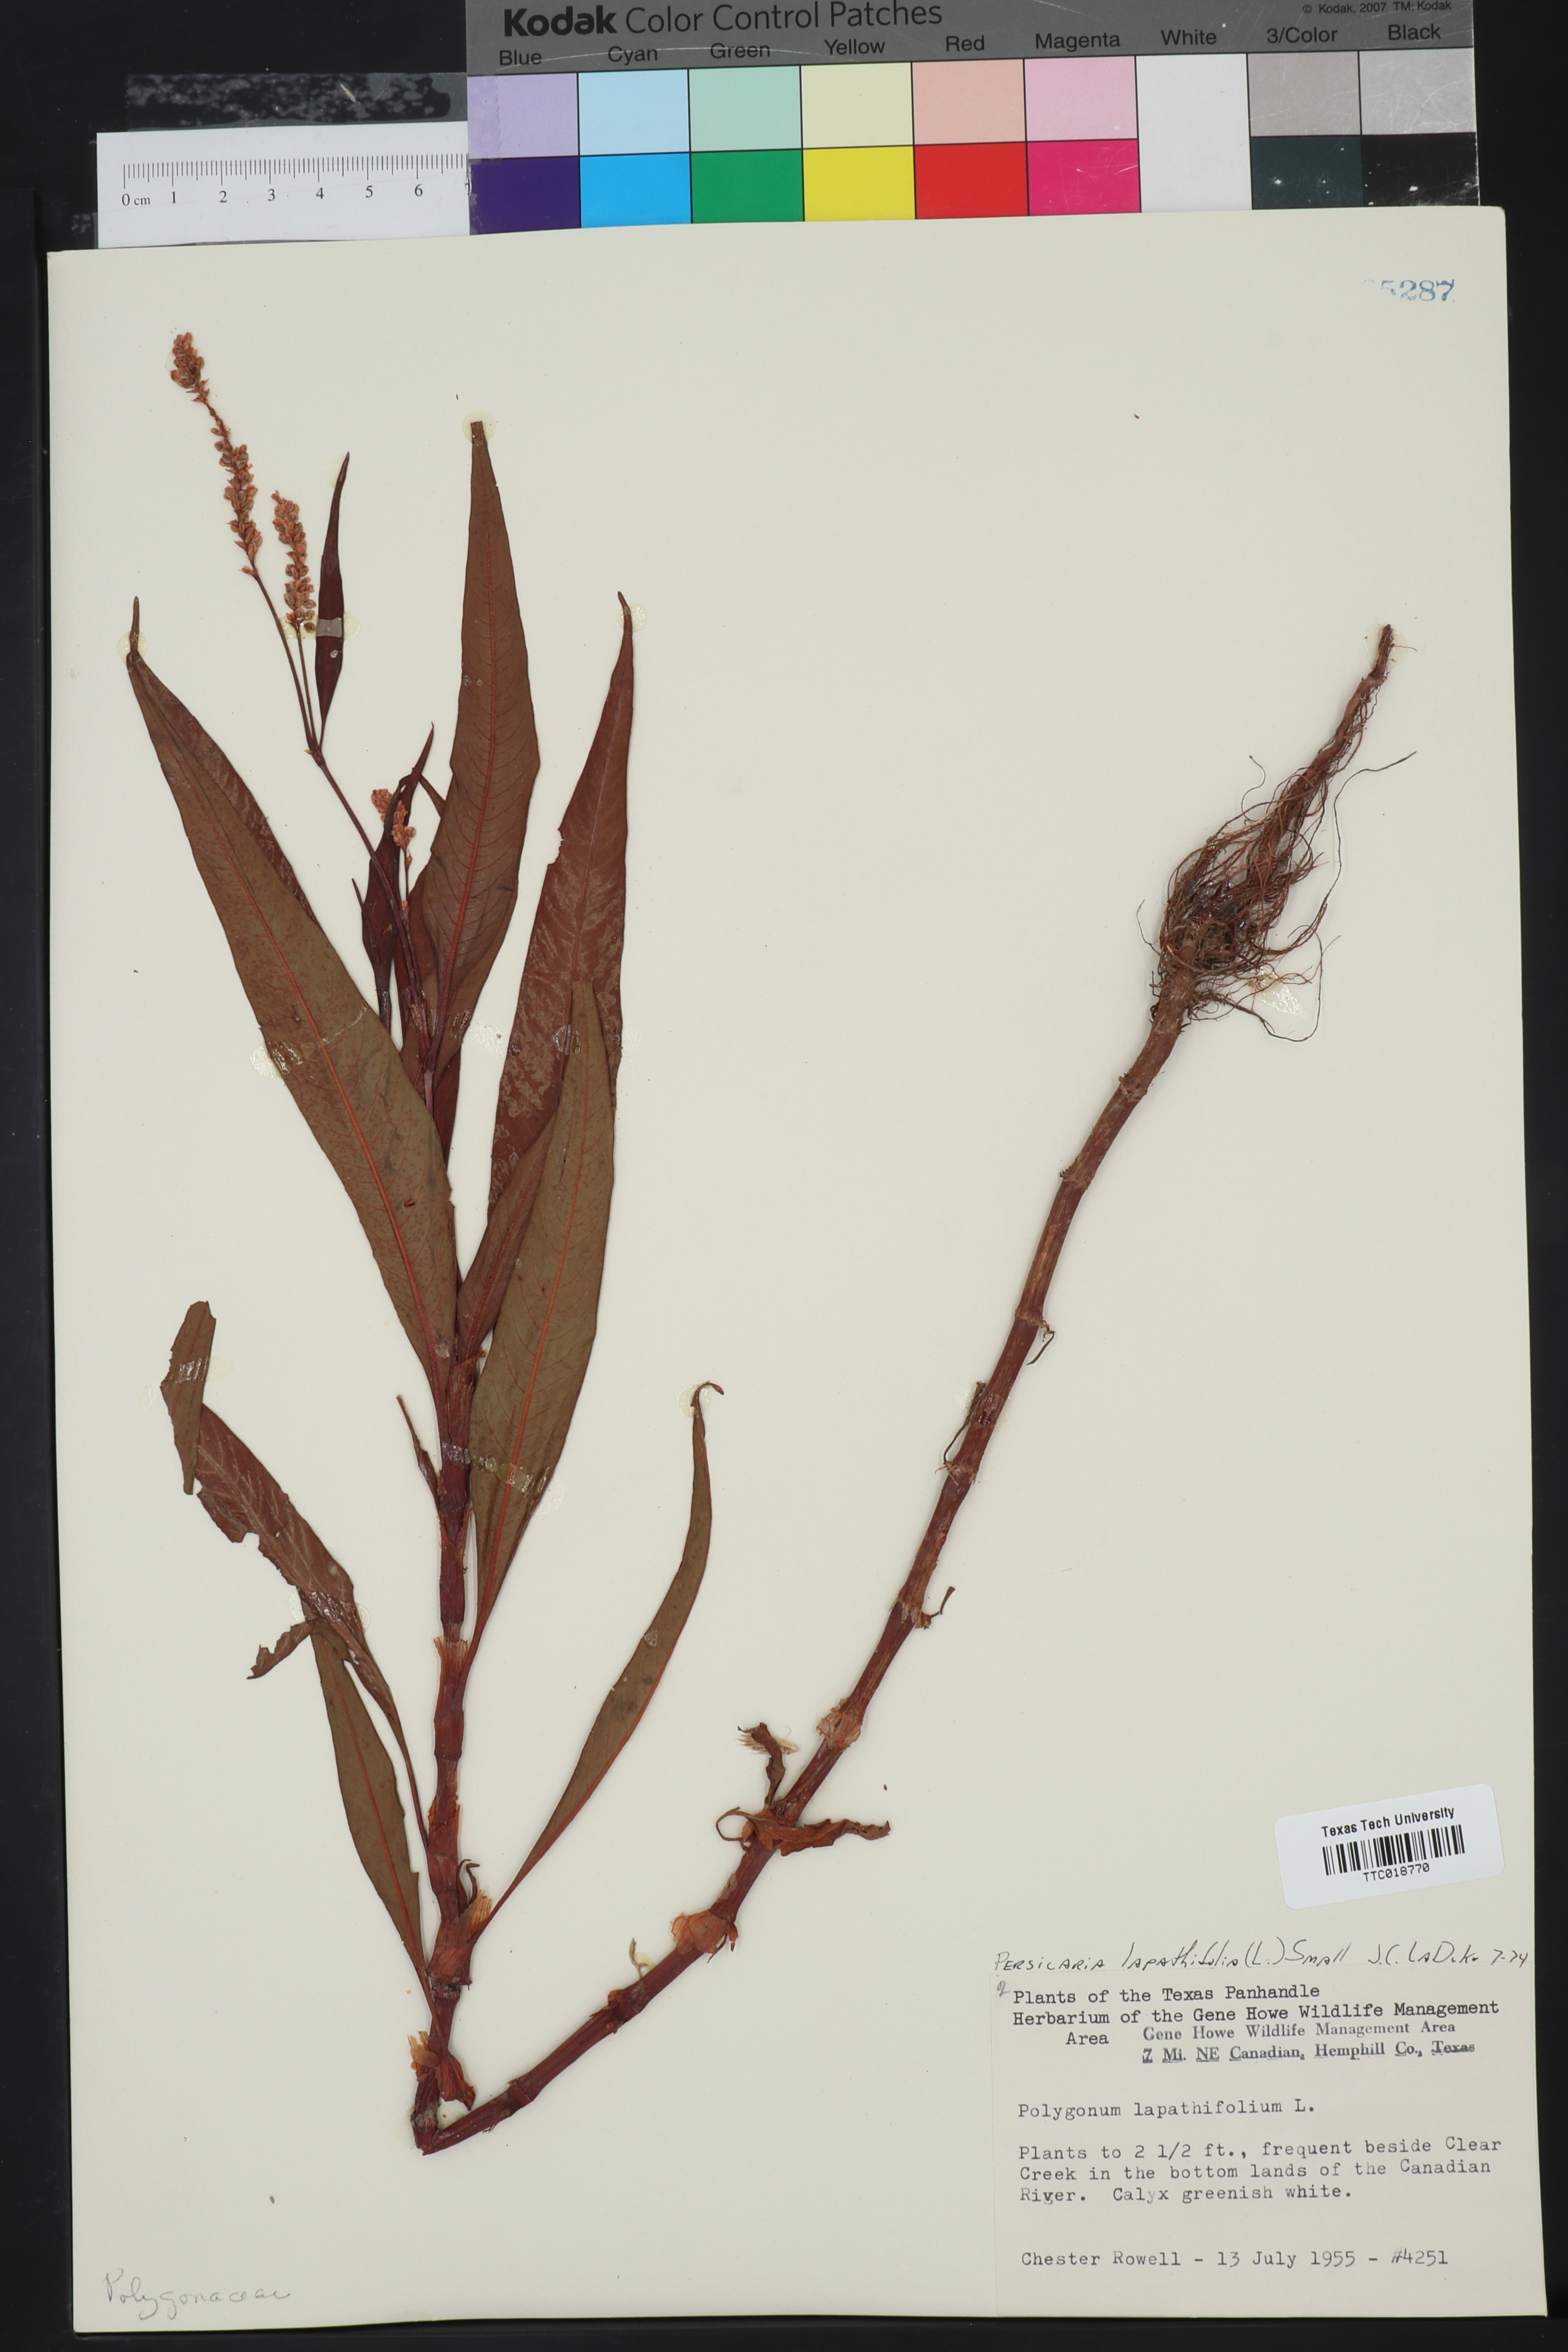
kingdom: Plantae
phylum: Tracheophyta
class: Magnoliopsida
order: Caryophyllales
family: Polygonaceae
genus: Persicaria
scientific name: Persicaria lapathifolia
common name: Curlytop knotweed
